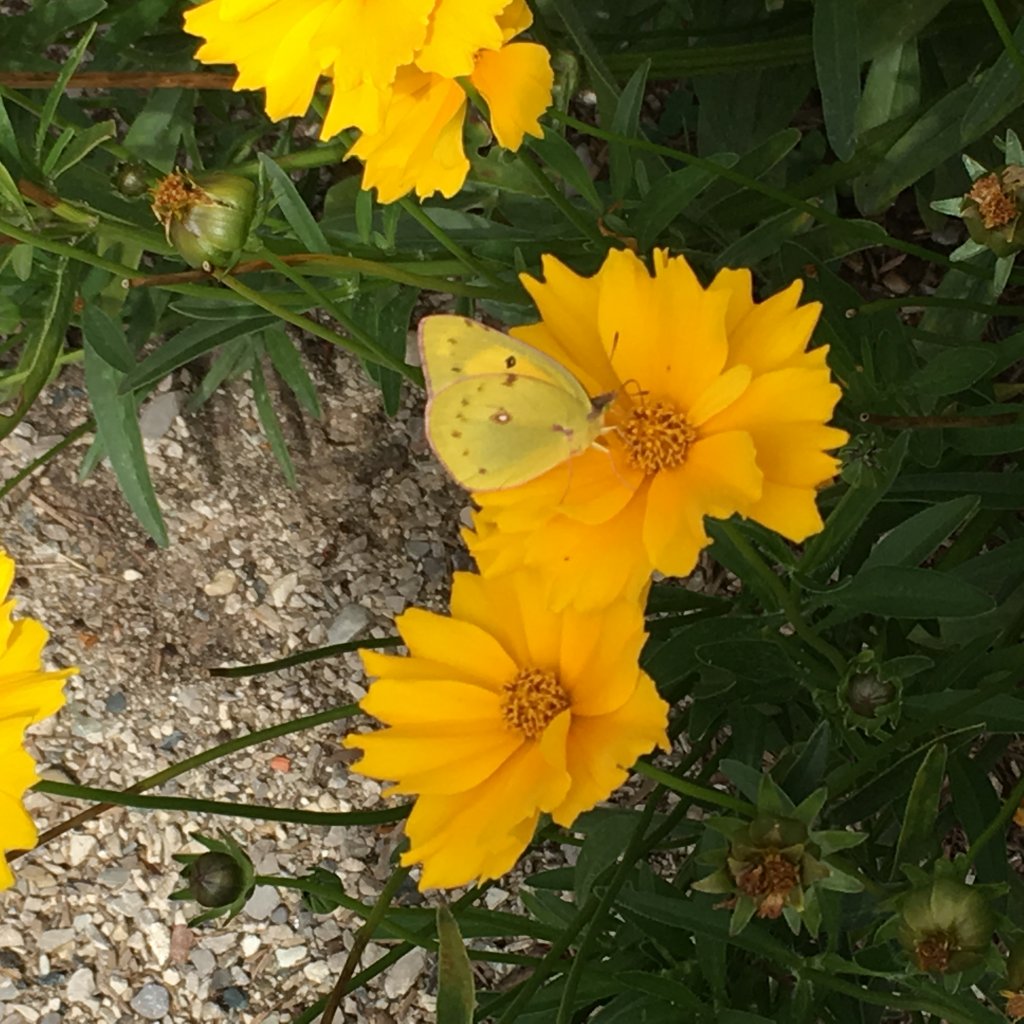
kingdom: Animalia
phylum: Arthropoda
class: Insecta
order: Lepidoptera
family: Pieridae
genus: Colias
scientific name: Colias eurytheme
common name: Orange Sulphur
